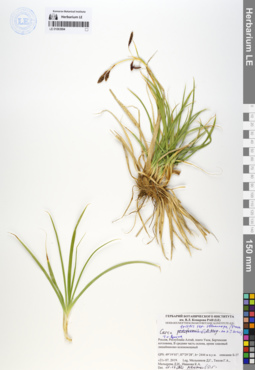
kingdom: Plantae
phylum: Tracheophyta
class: Liliopsida
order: Poales
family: Cyperaceae
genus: Carex
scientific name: Carex stenocarpa
